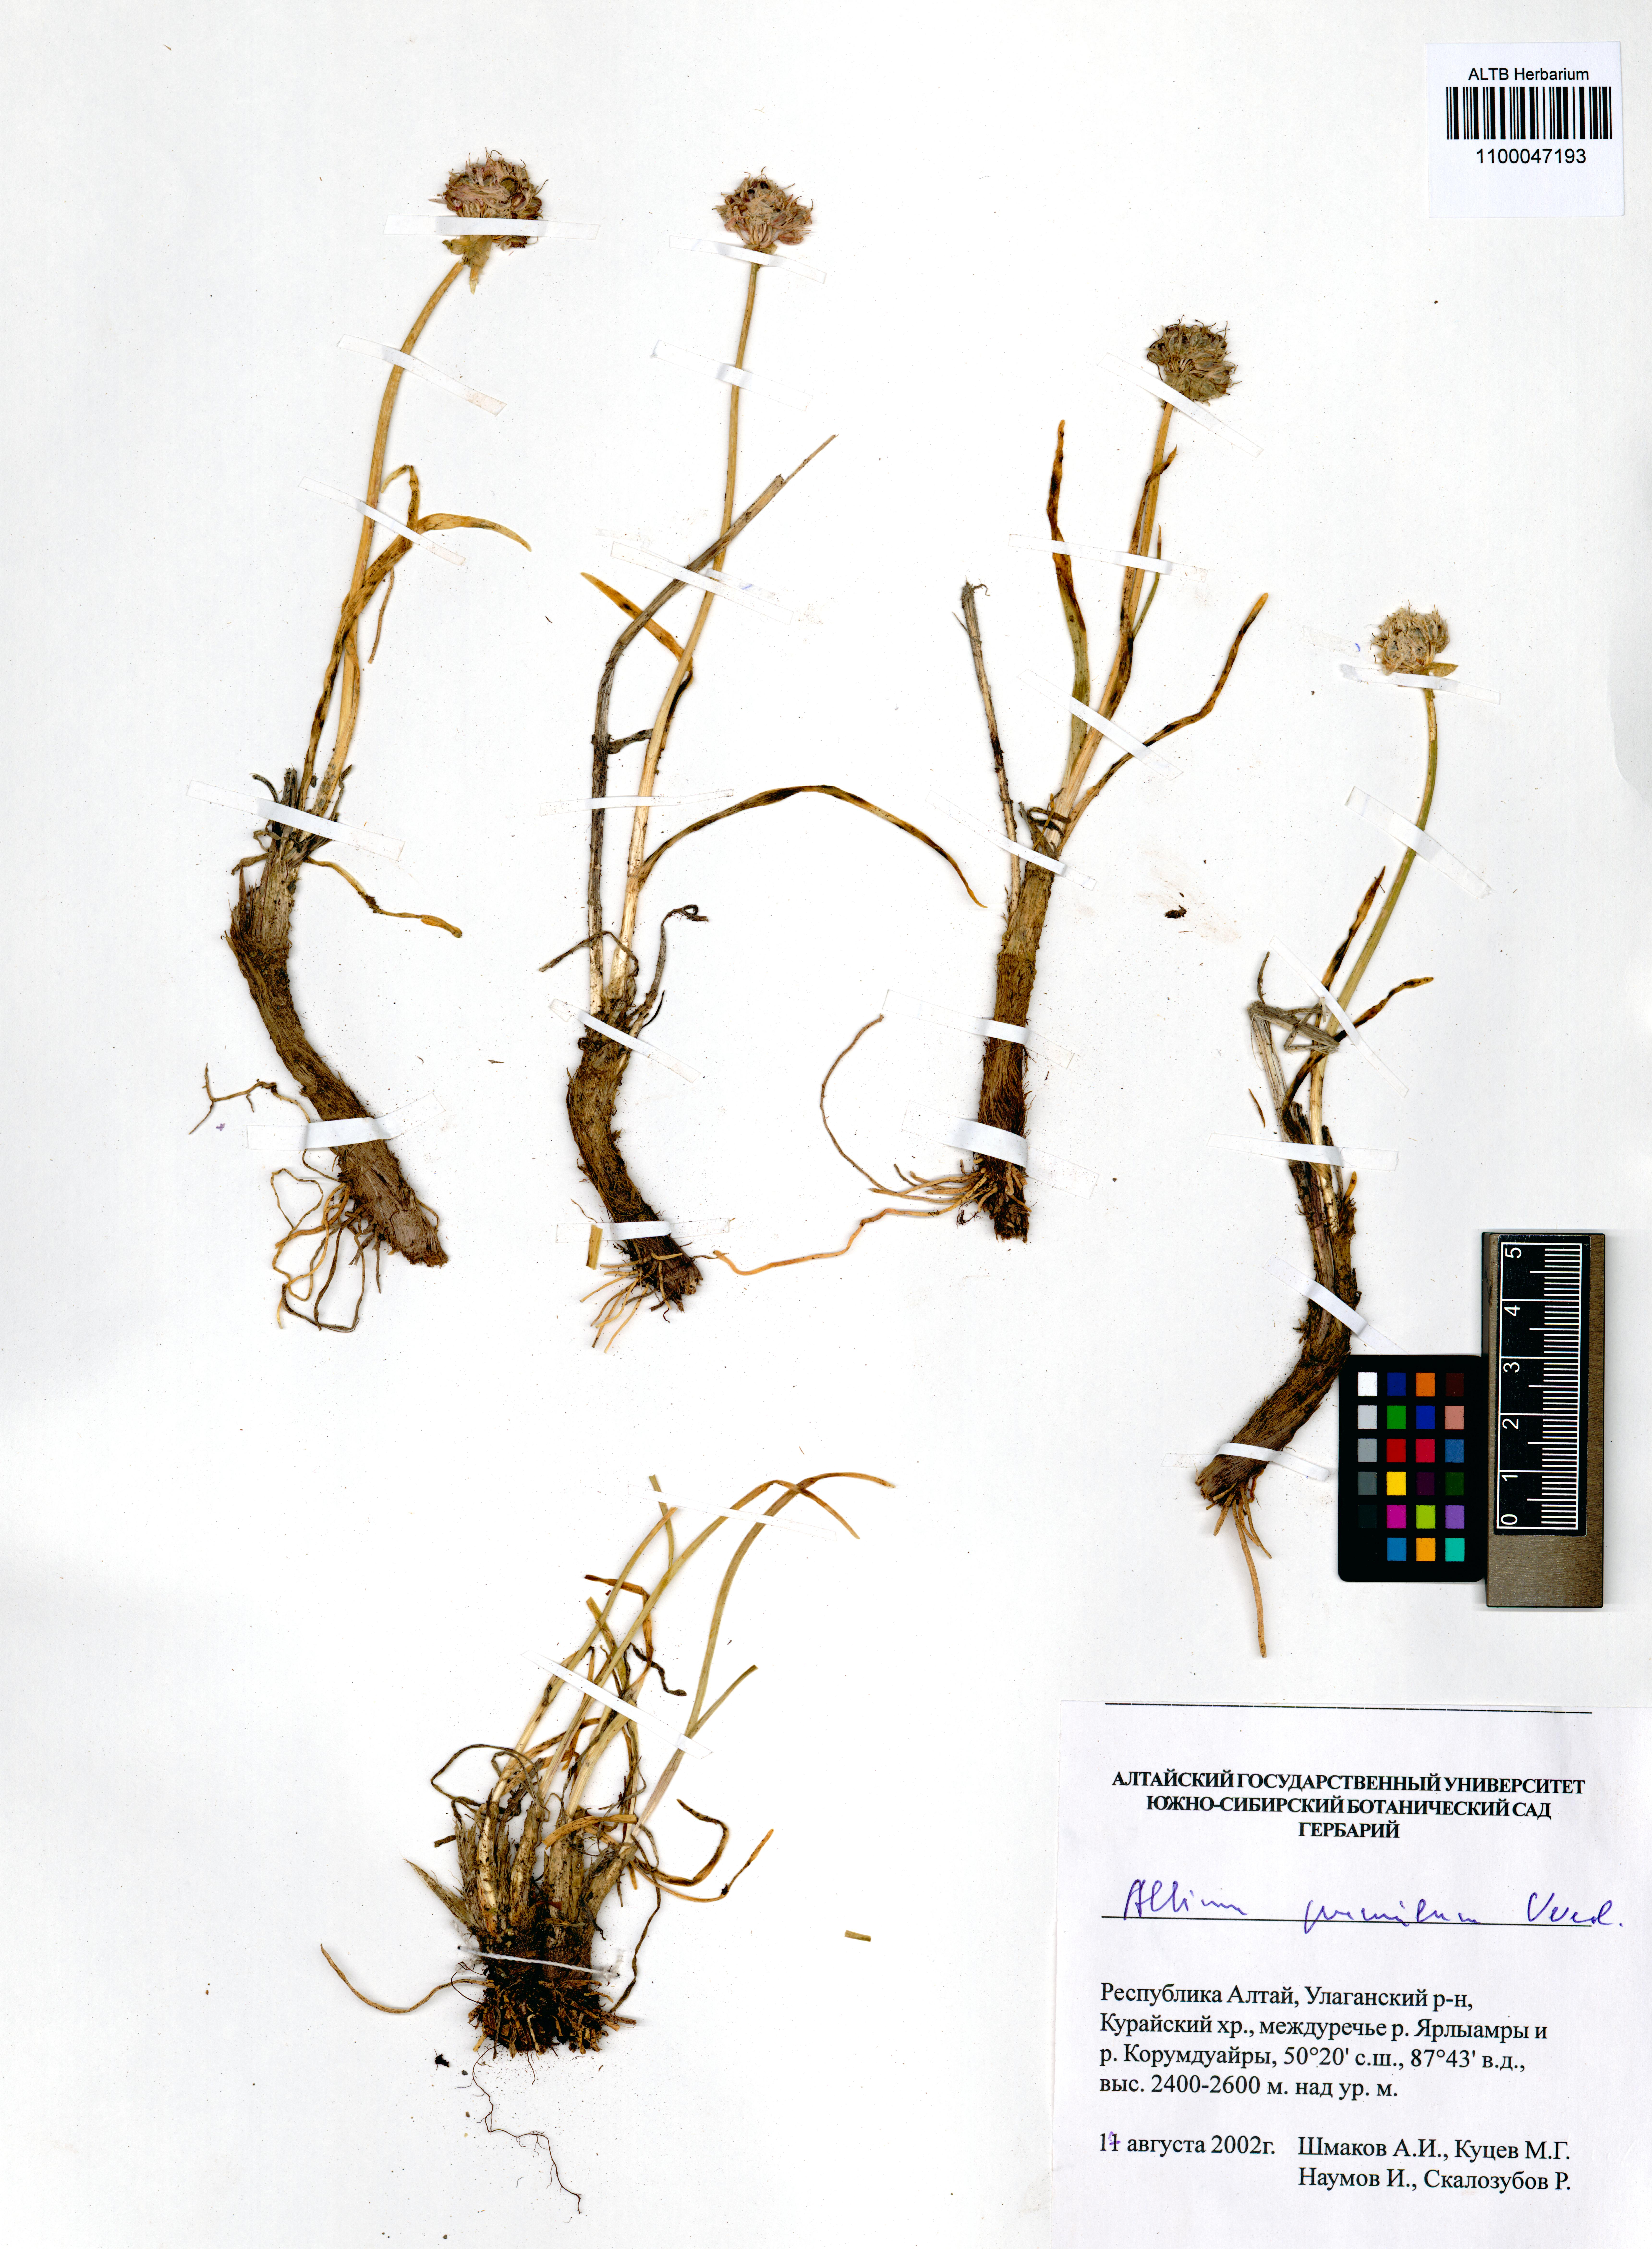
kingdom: Plantae
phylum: Tracheophyta
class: Liliopsida
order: Asparagales
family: Amaryllidaceae
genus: Allium
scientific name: Allium pumilum
